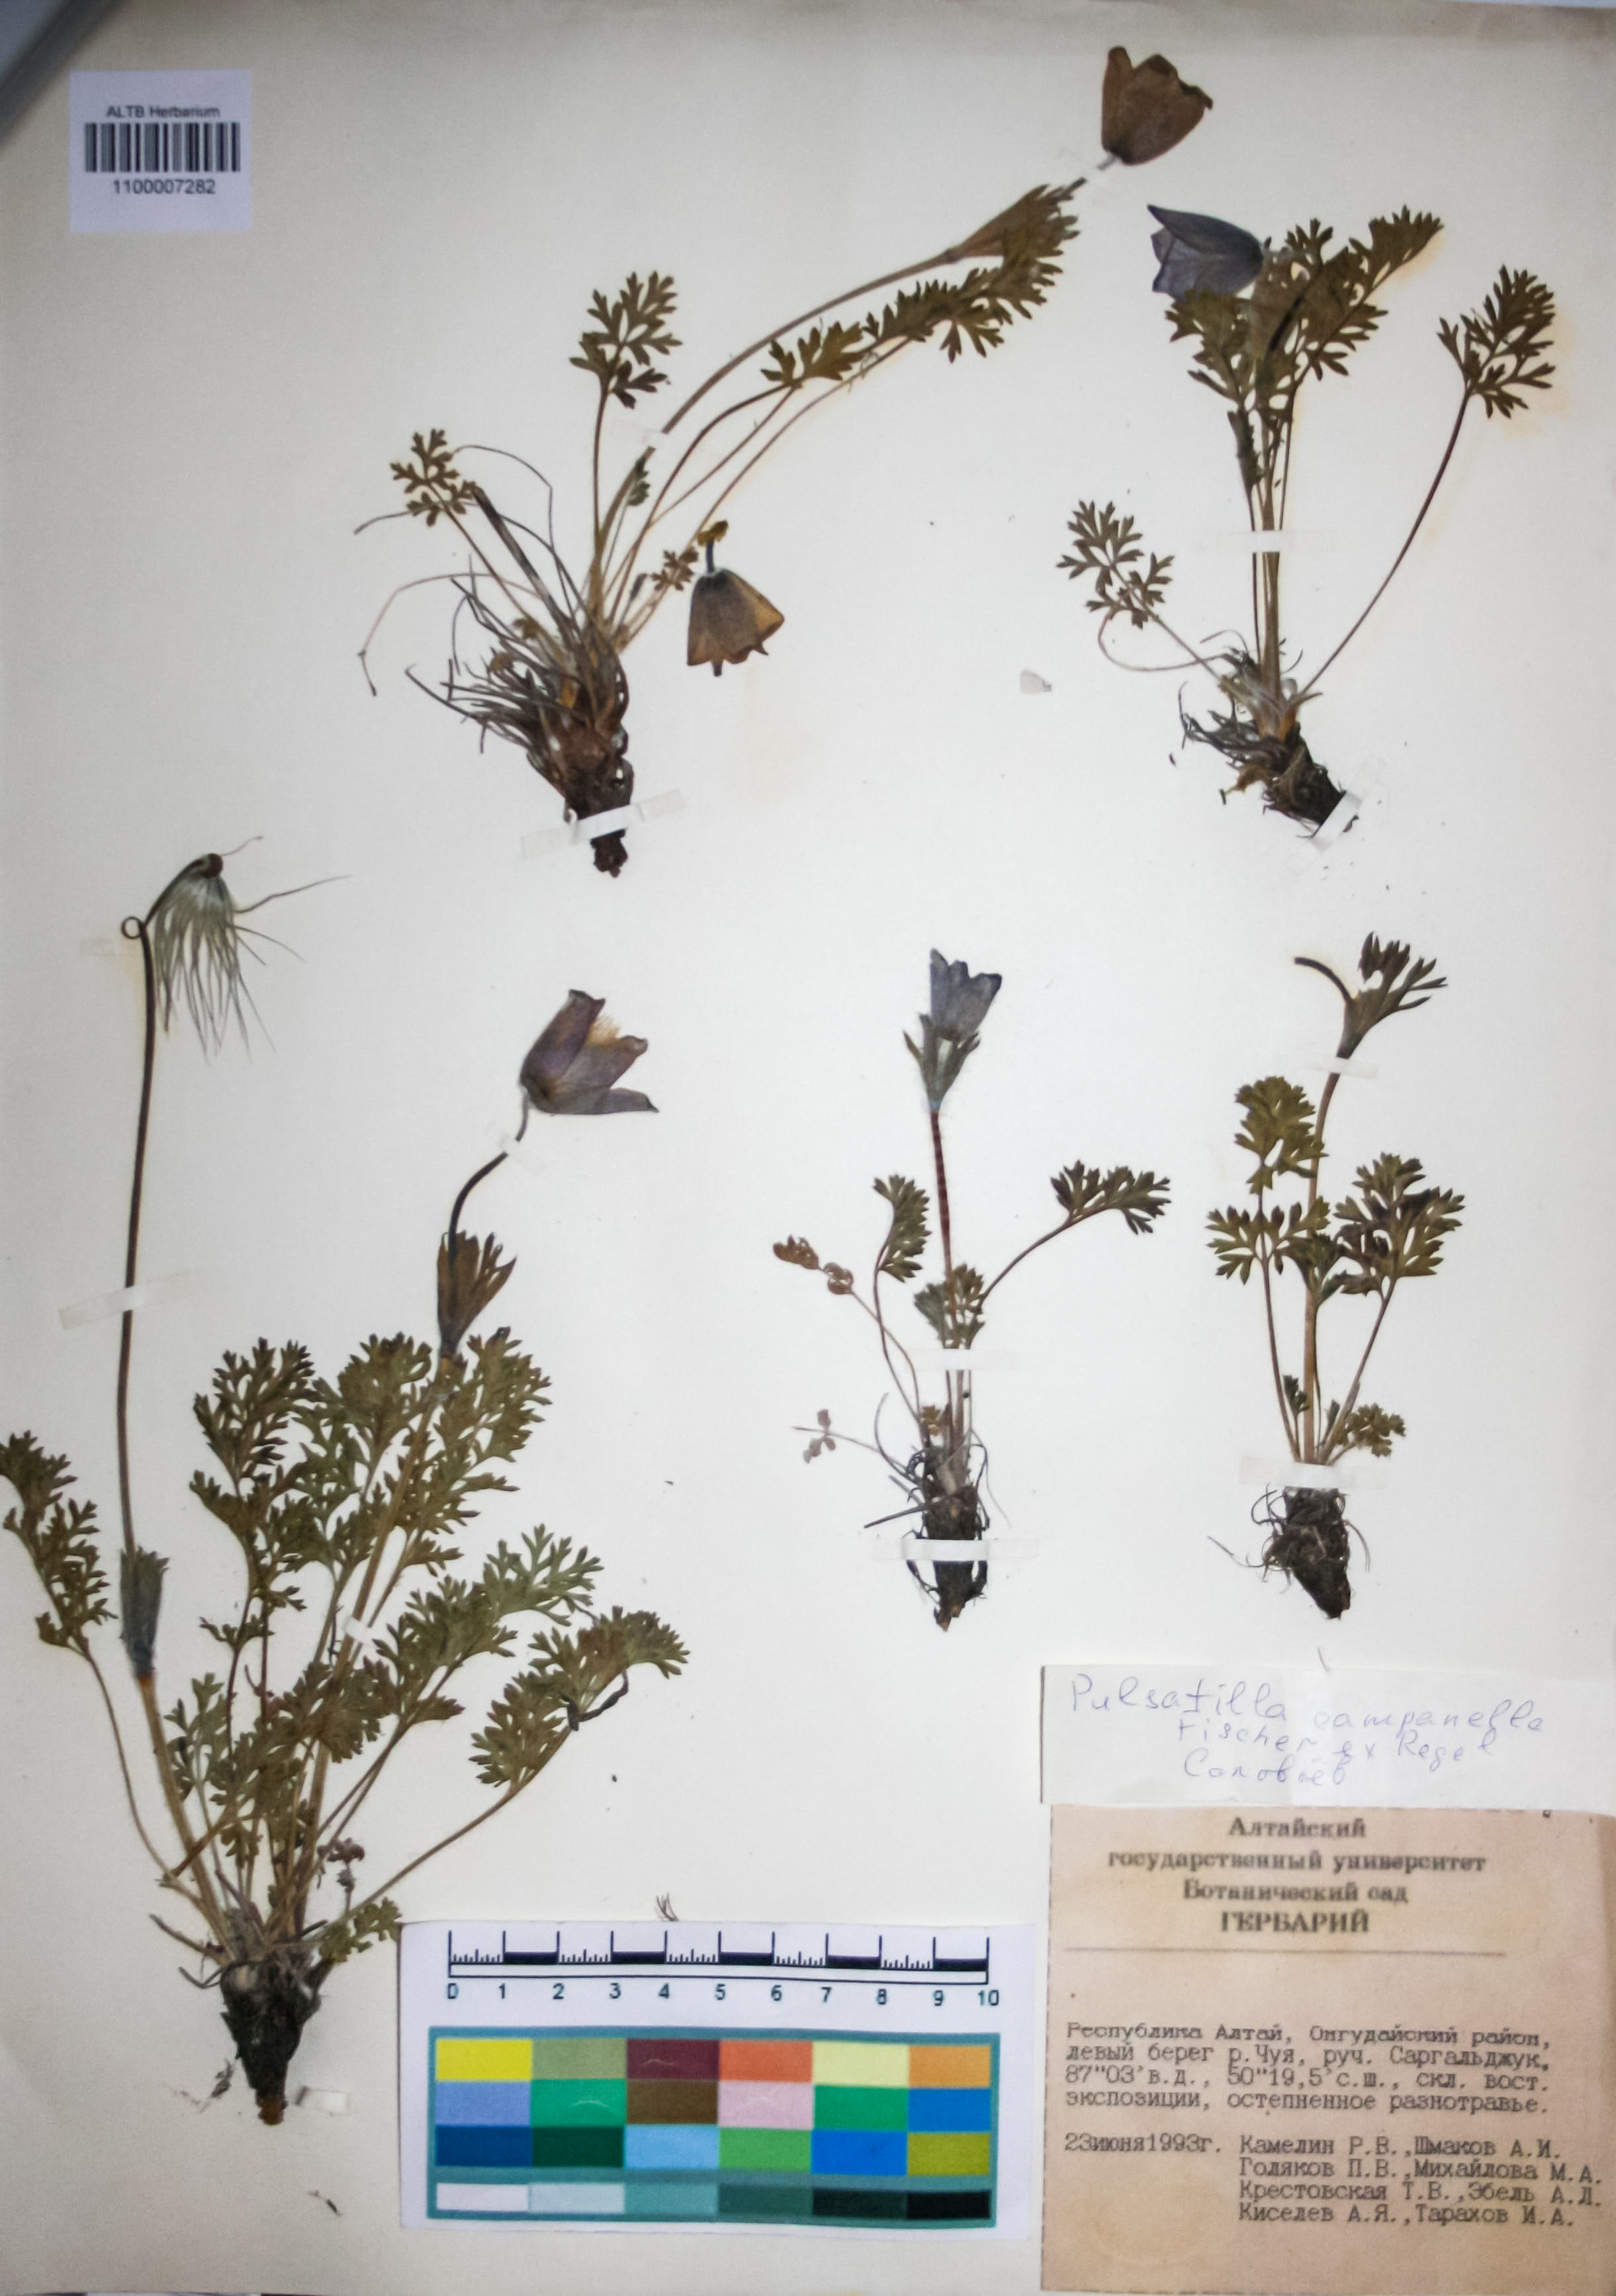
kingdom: Plantae
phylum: Tracheophyta
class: Magnoliopsida
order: Ranunculales
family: Ranunculaceae
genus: Pulsatilla
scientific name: Pulsatilla campanella
